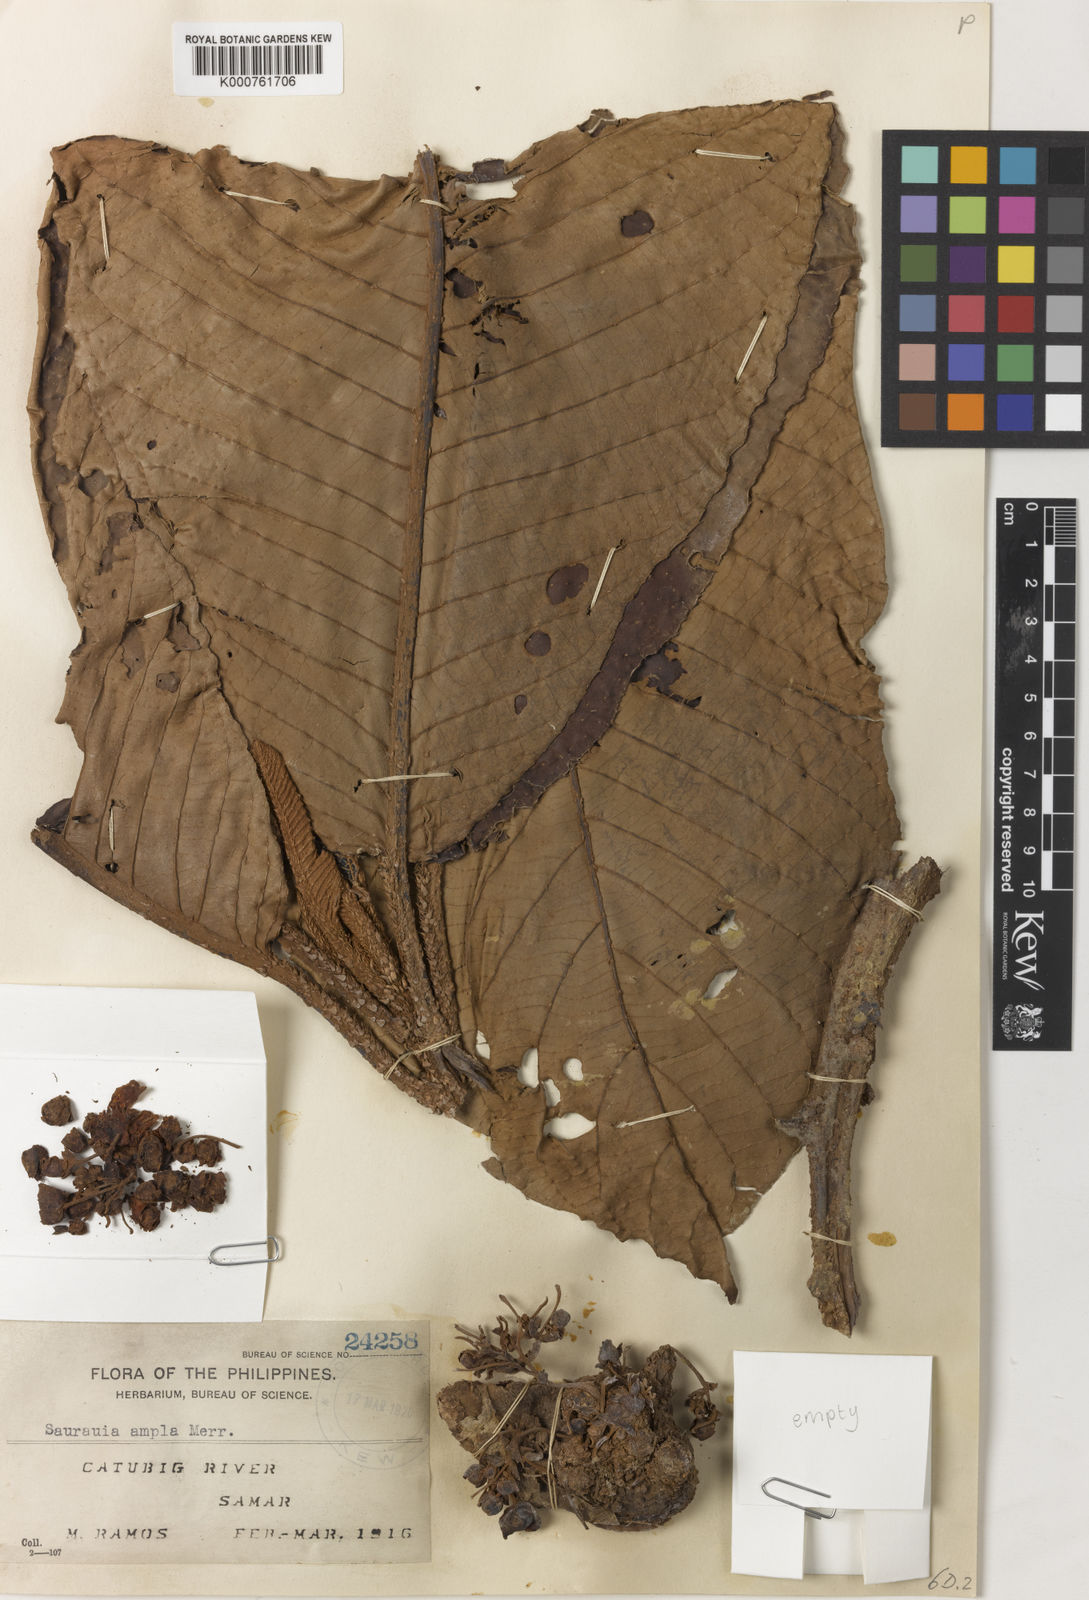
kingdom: Plantae
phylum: Tracheophyta
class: Magnoliopsida
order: Ericales
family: Actinidiaceae
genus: Saurauia
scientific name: Saurauia ampla
